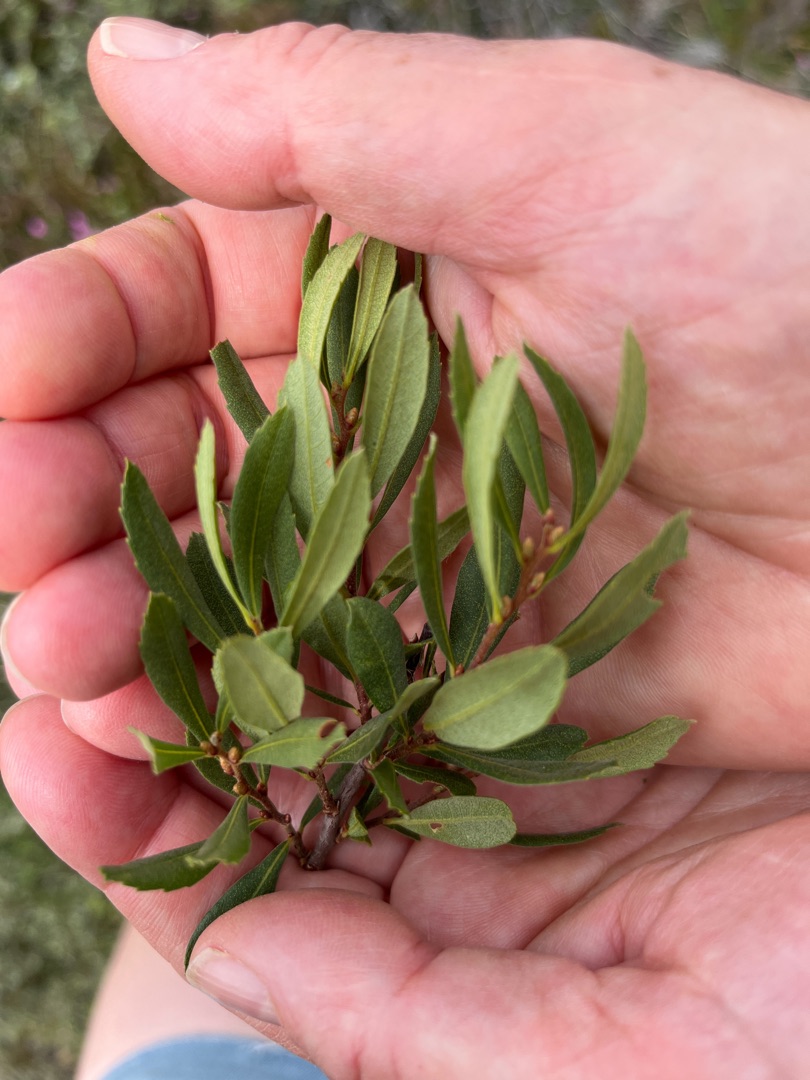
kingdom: Plantae
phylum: Tracheophyta
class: Magnoliopsida
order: Fagales
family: Myricaceae
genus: Myrica
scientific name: Myrica gale
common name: Pors
